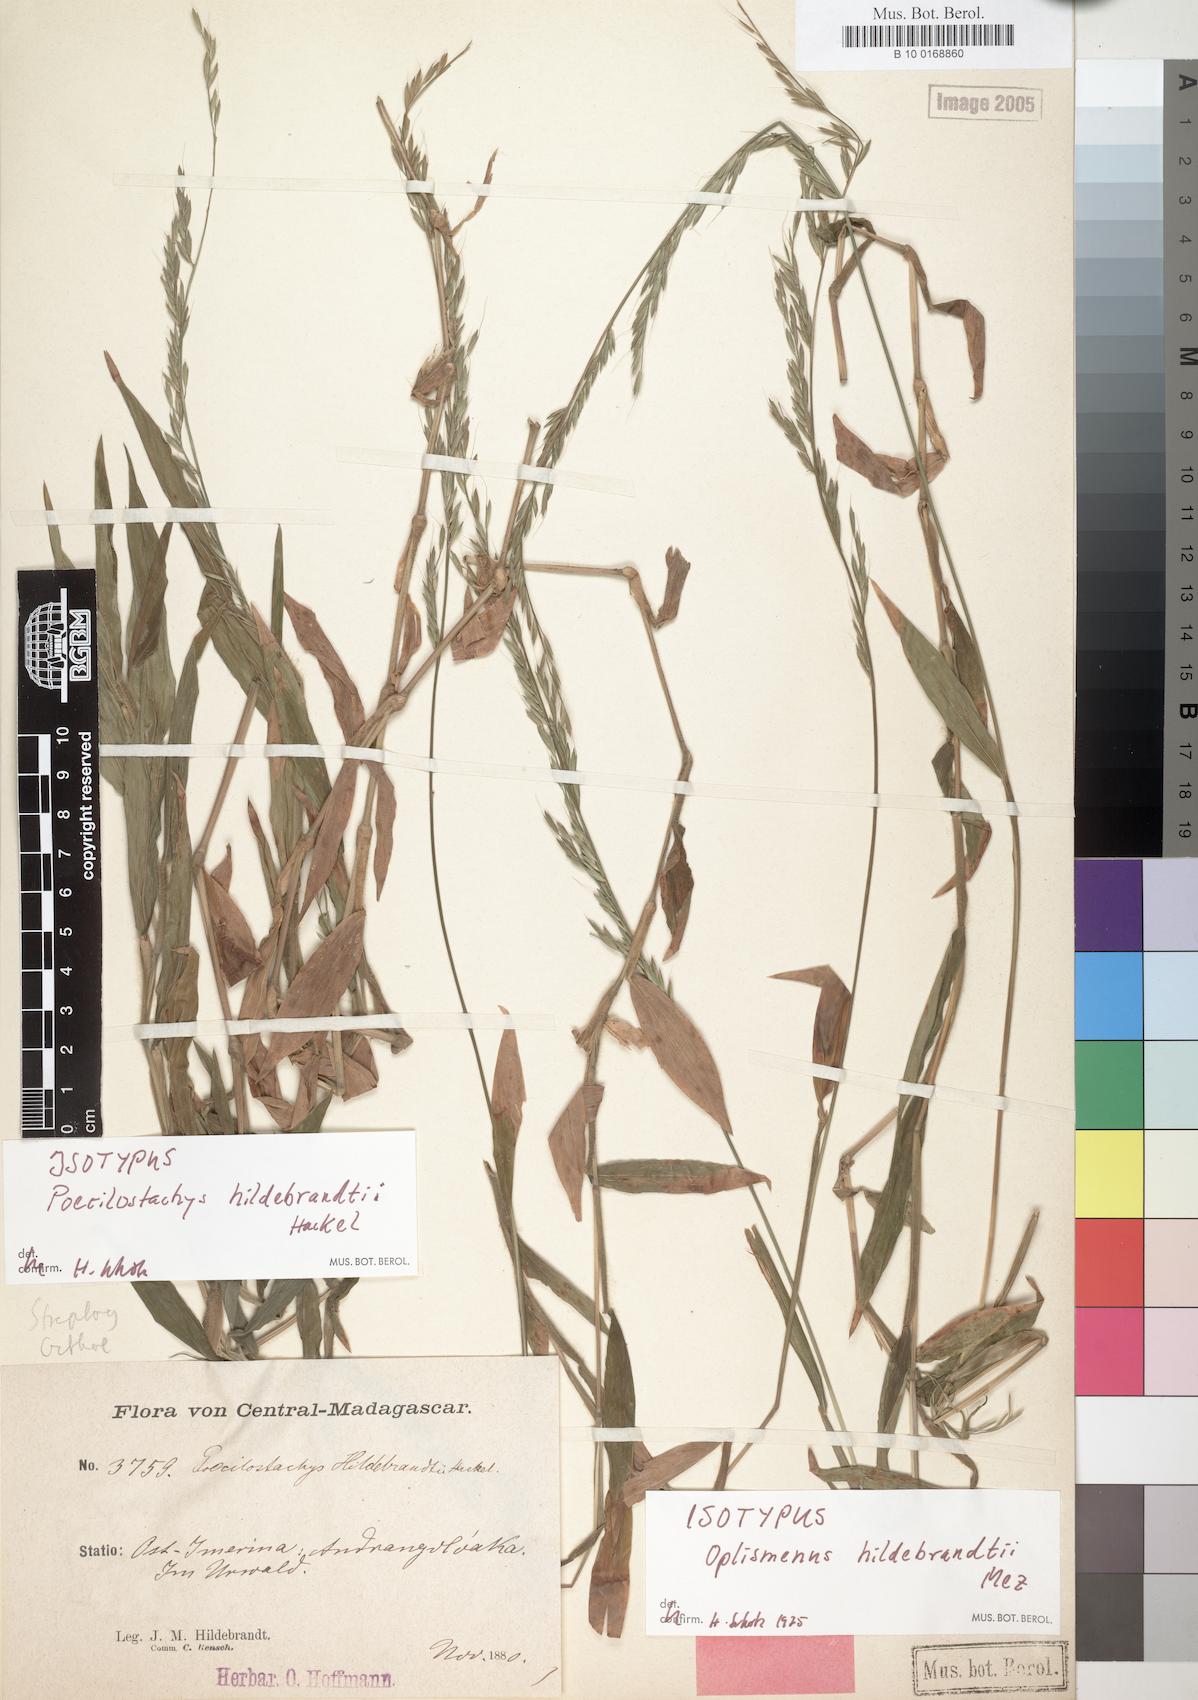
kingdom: Plantae
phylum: Tracheophyta
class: Liliopsida
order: Poales
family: Poaceae
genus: Poecilostachys
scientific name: Poecilostachys hildebrandtii
